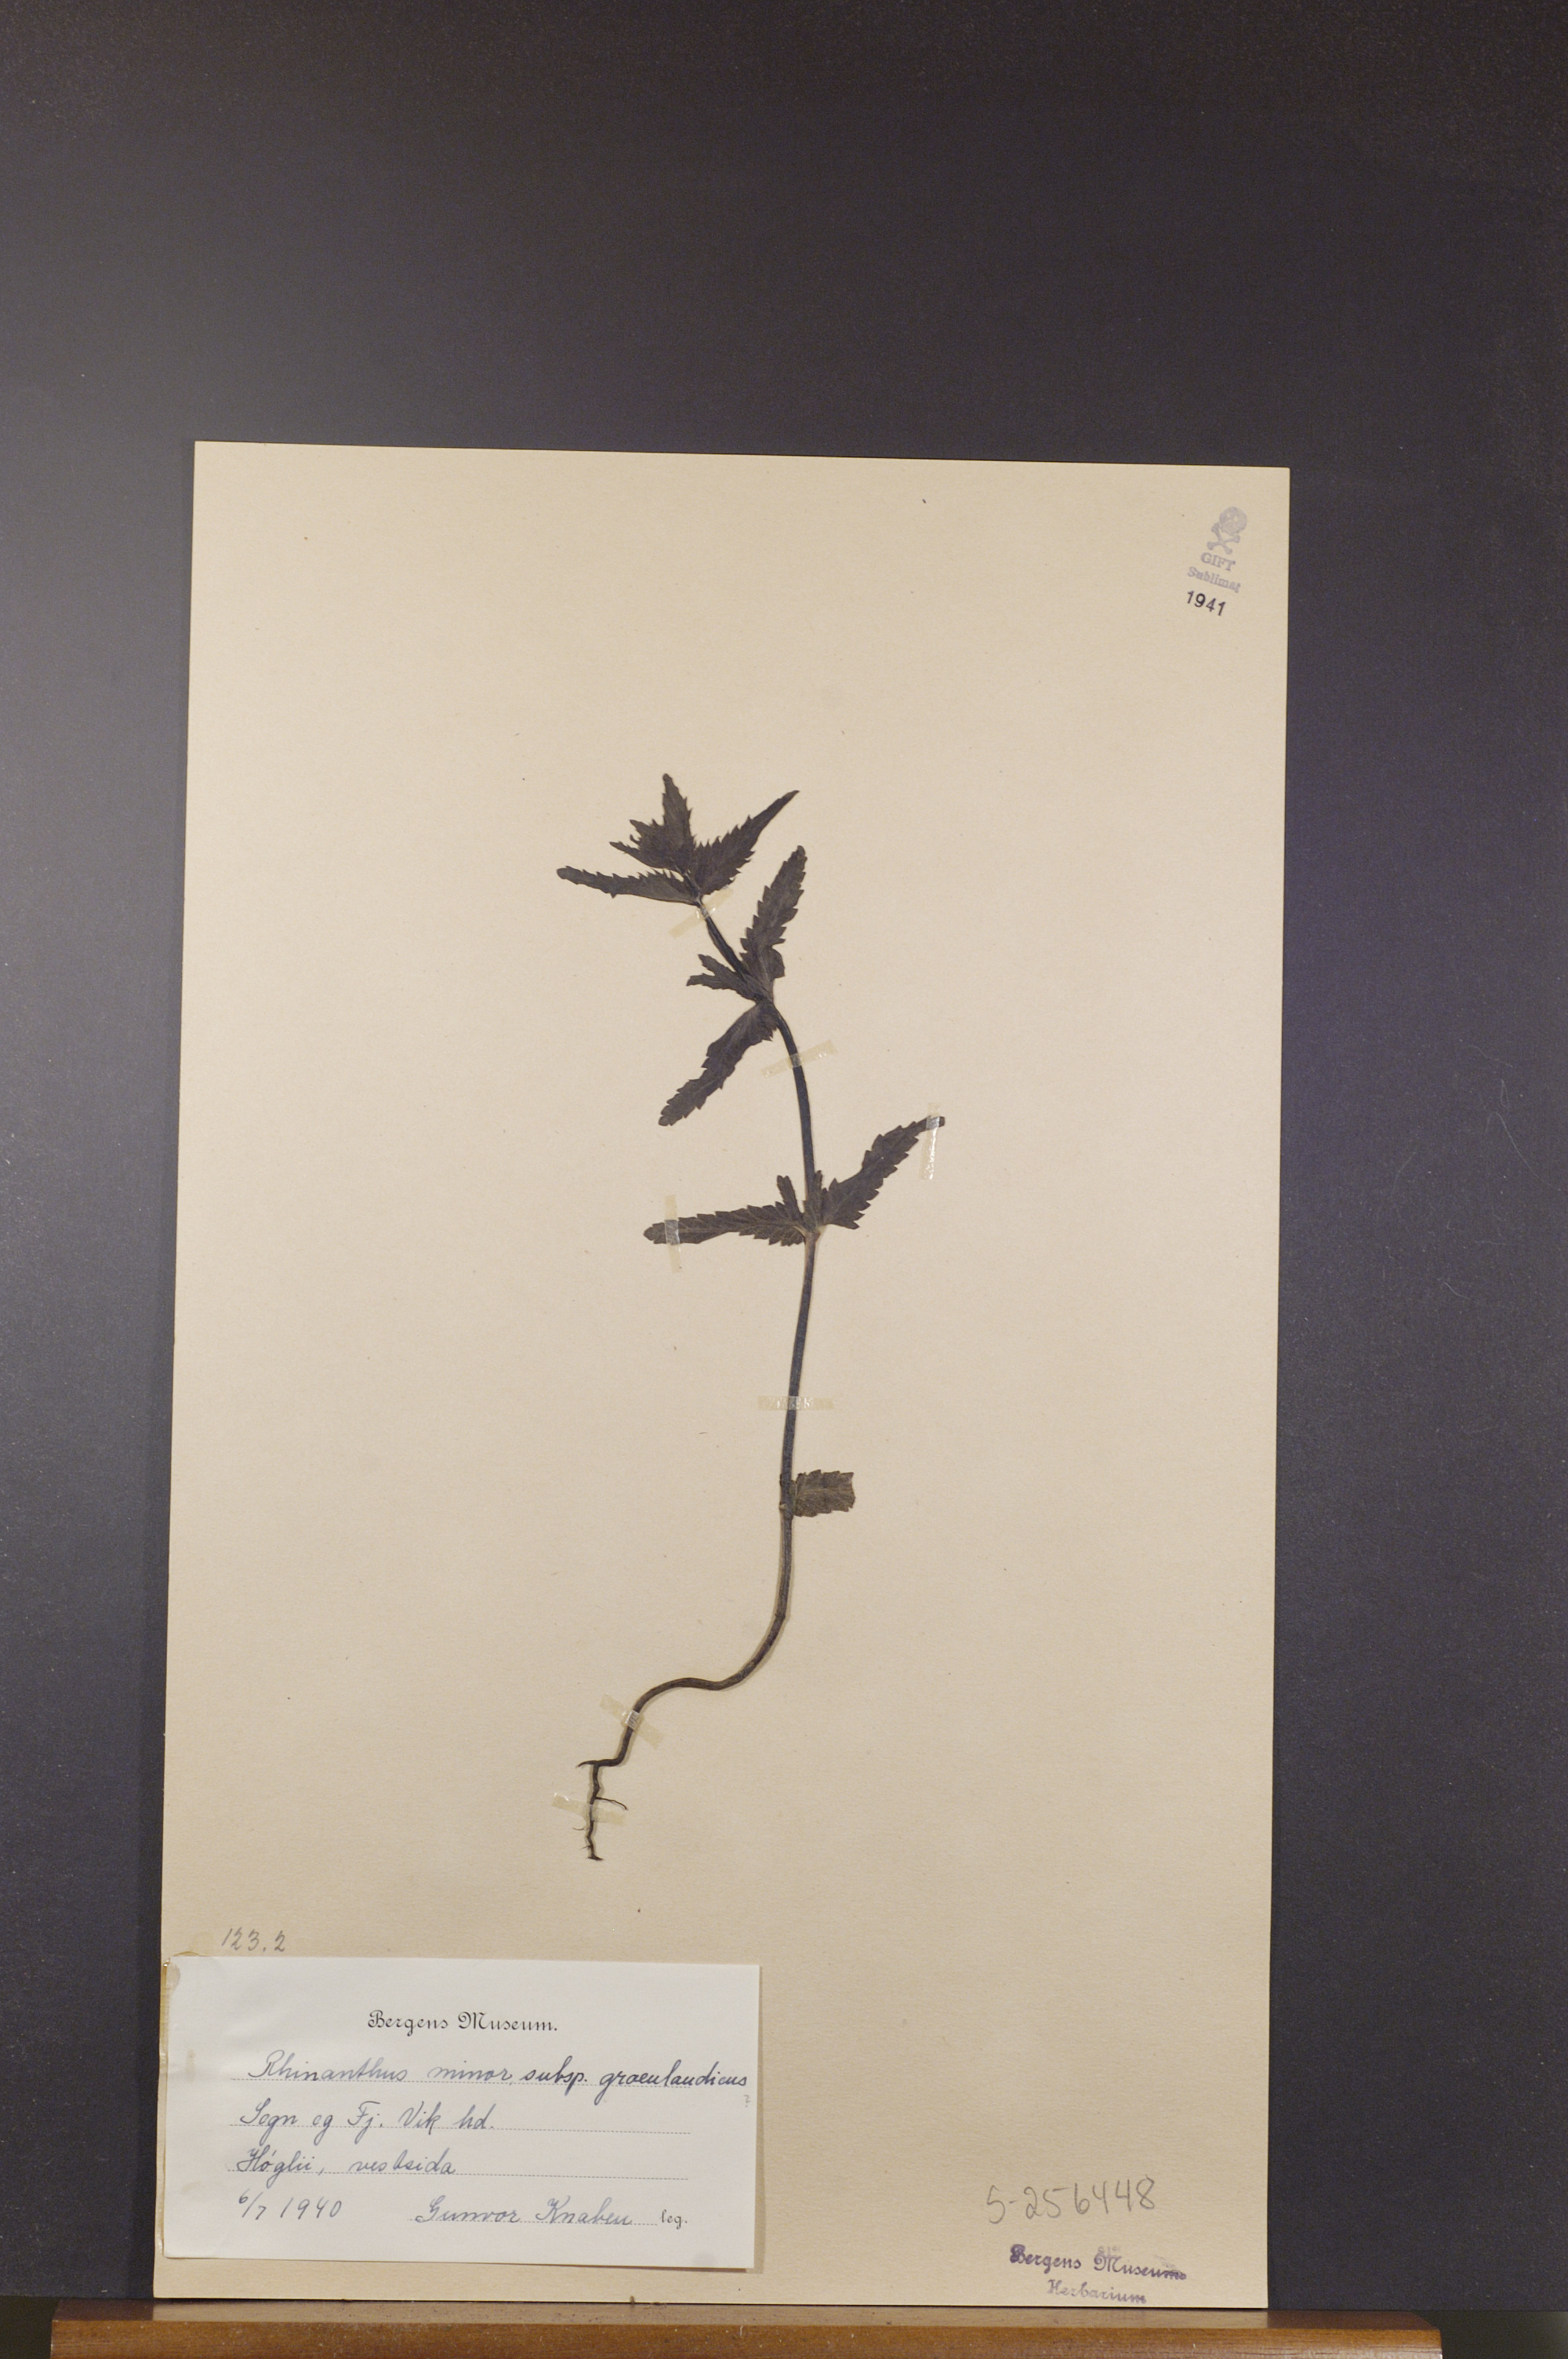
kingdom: Plantae
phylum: Tracheophyta
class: Magnoliopsida
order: Lamiales
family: Orobanchaceae
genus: Rhinanthus
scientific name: Rhinanthus groenlandicus
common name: Little yellow rattle
